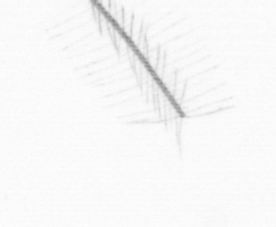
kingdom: Chromista
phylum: Ochrophyta
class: Bacillariophyceae
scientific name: Bacillariophyceae
